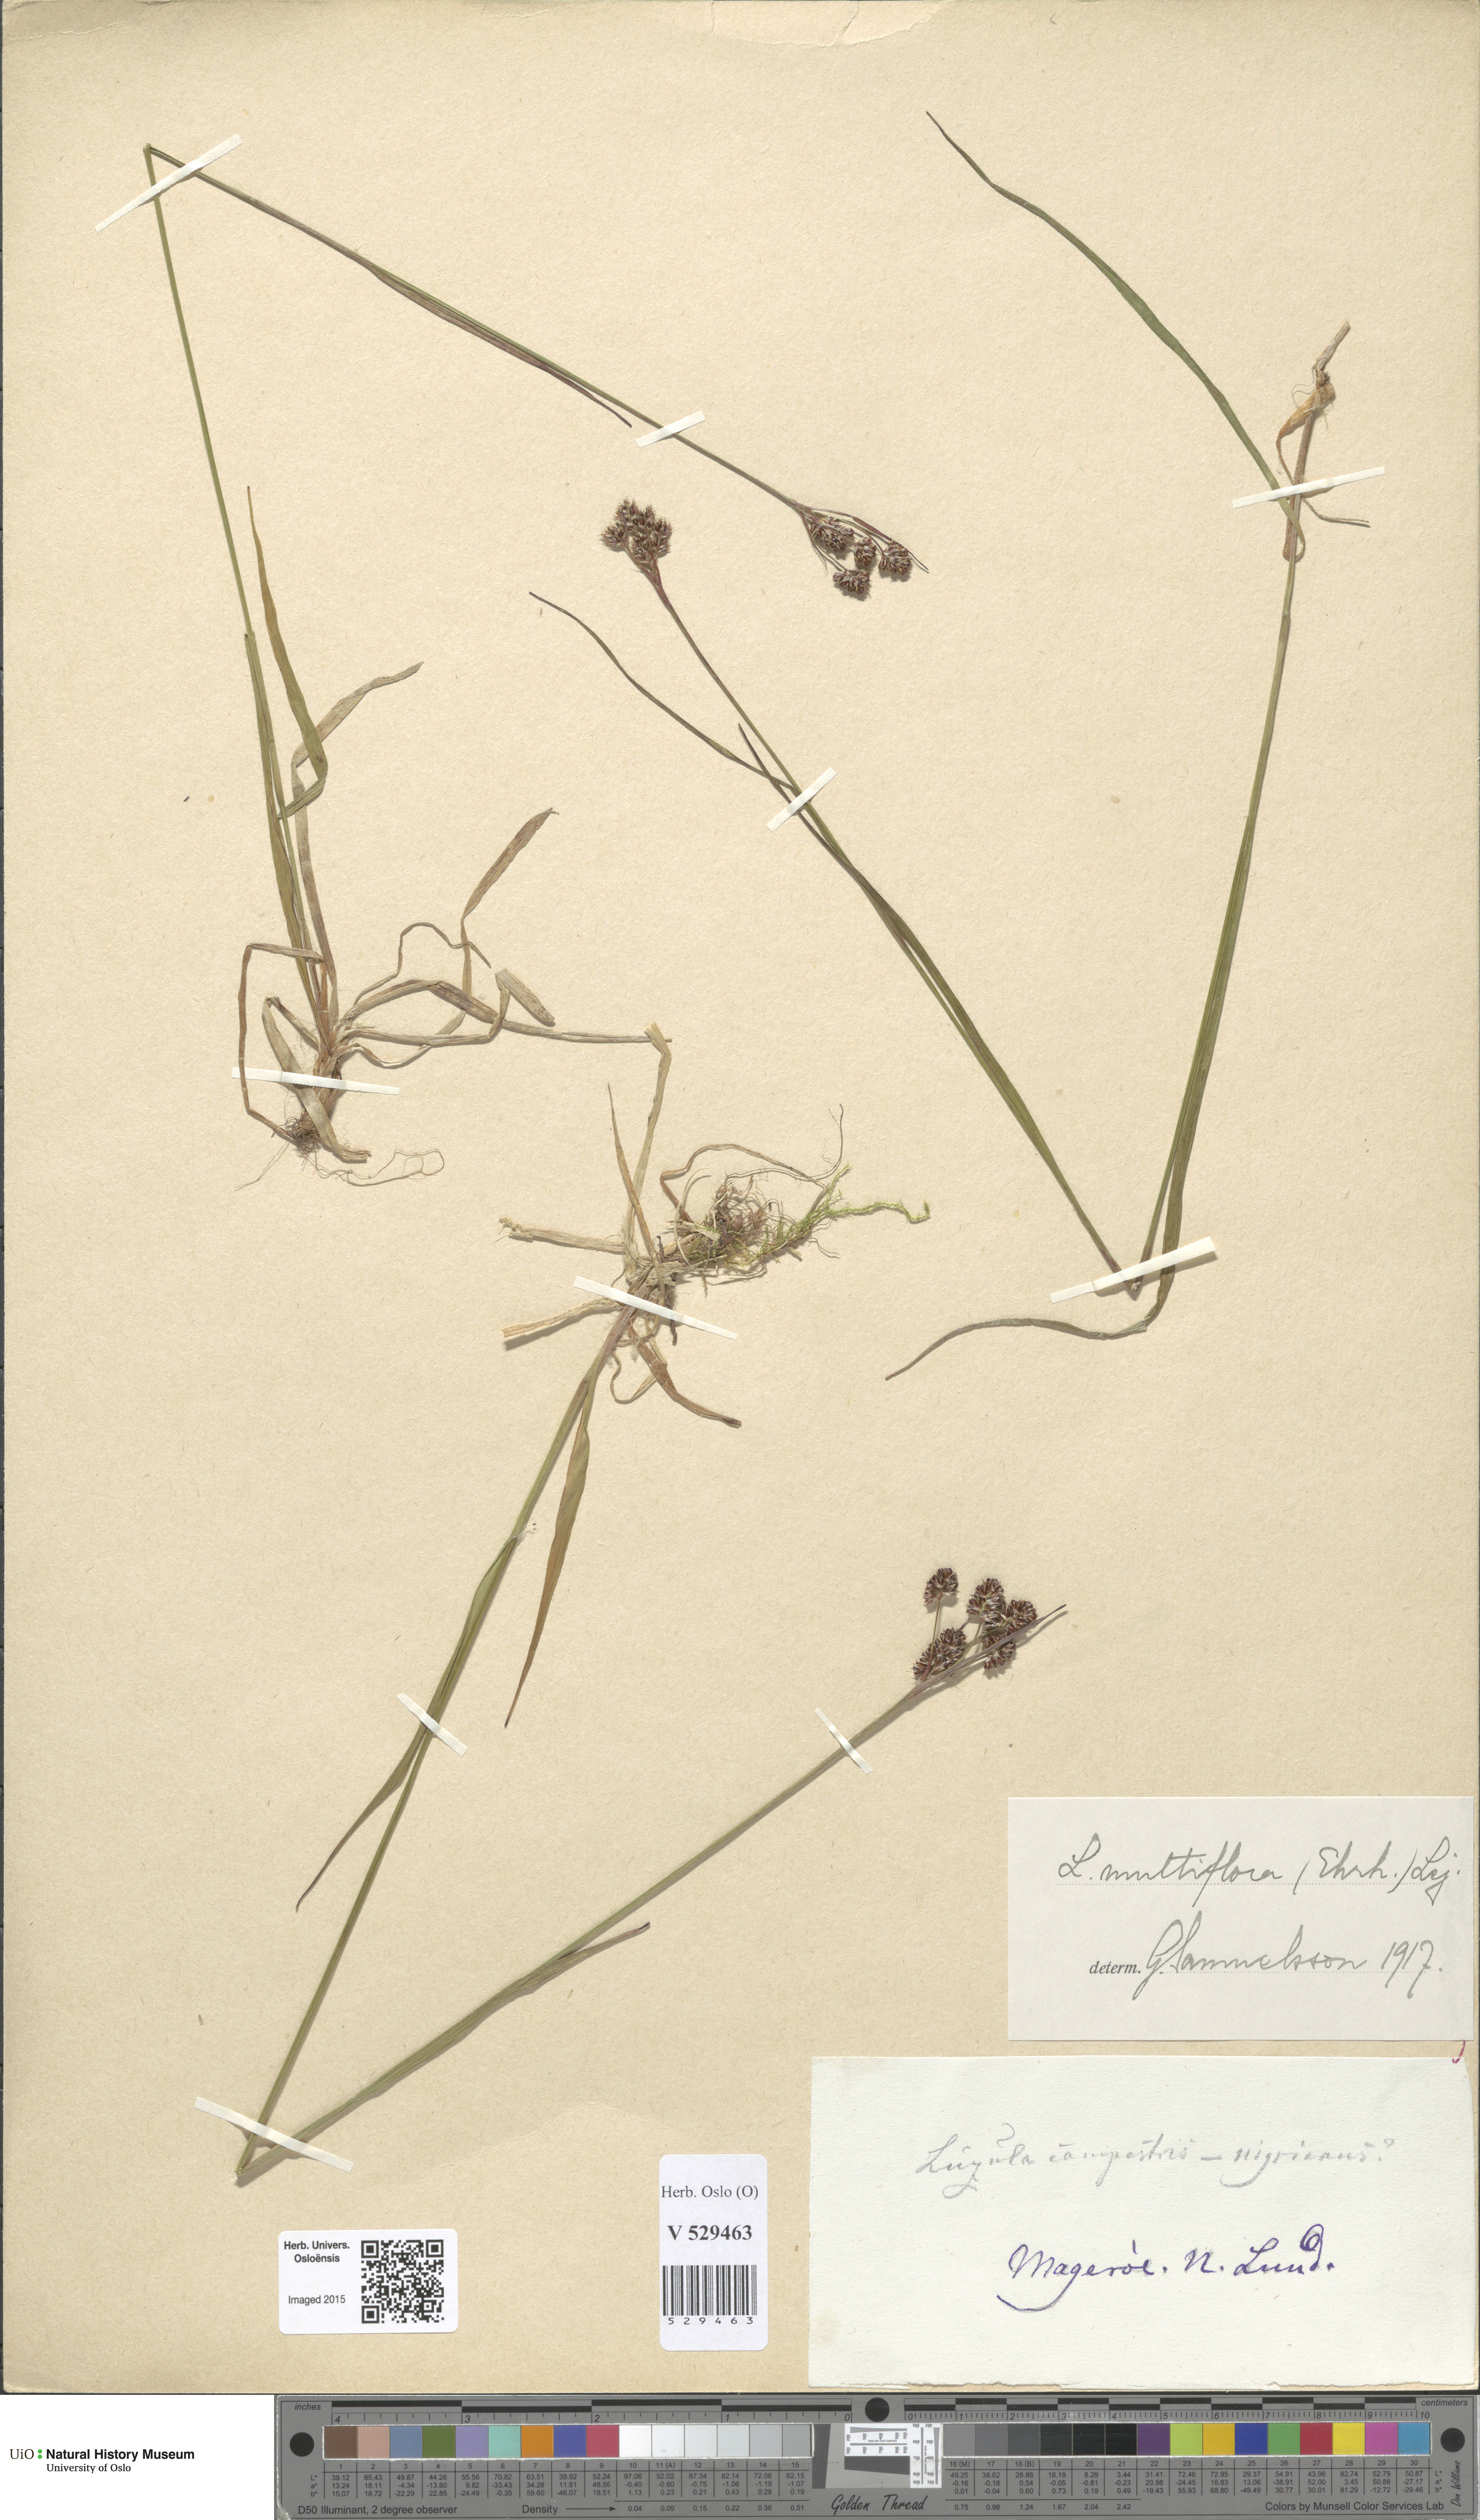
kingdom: Plantae
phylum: Tracheophyta
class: Liliopsida
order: Poales
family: Juncaceae
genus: Luzula
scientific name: Luzula multiflora
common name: Heath wood-rush
